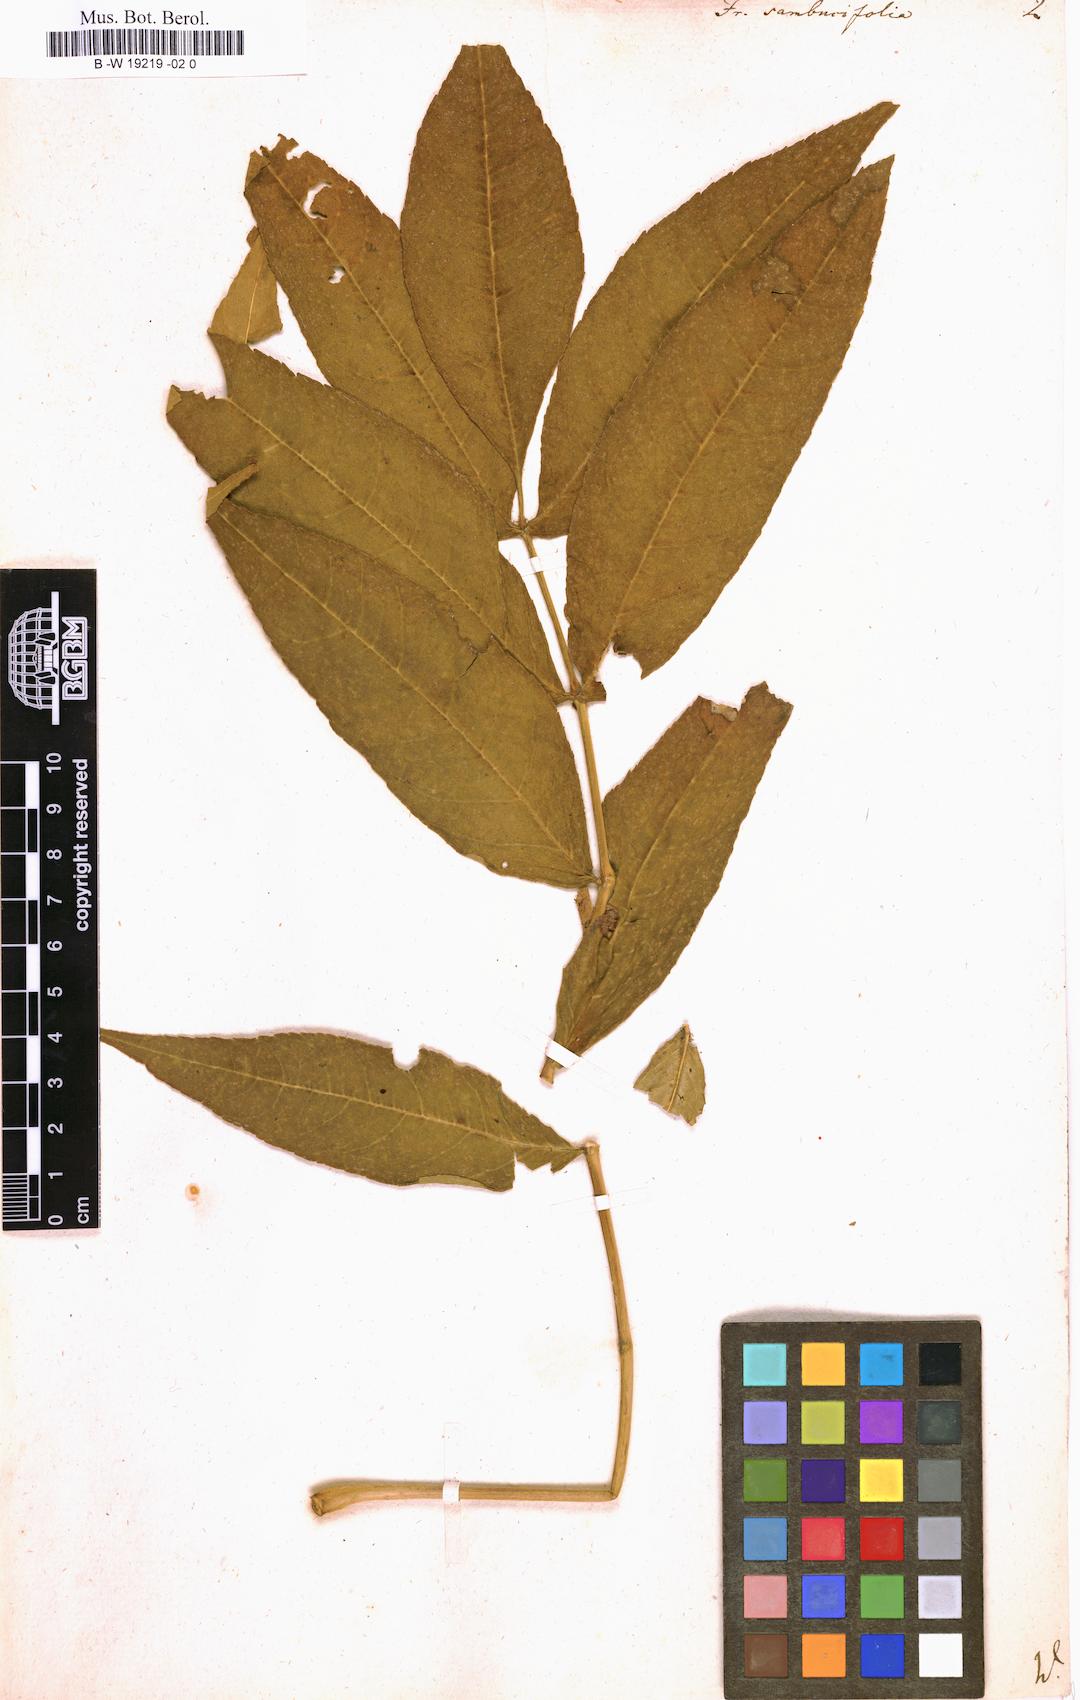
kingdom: Plantae
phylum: Tracheophyta
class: Magnoliopsida
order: Lamiales
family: Oleaceae
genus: Fraxinus
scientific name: Fraxinus nigra
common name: Black ash
